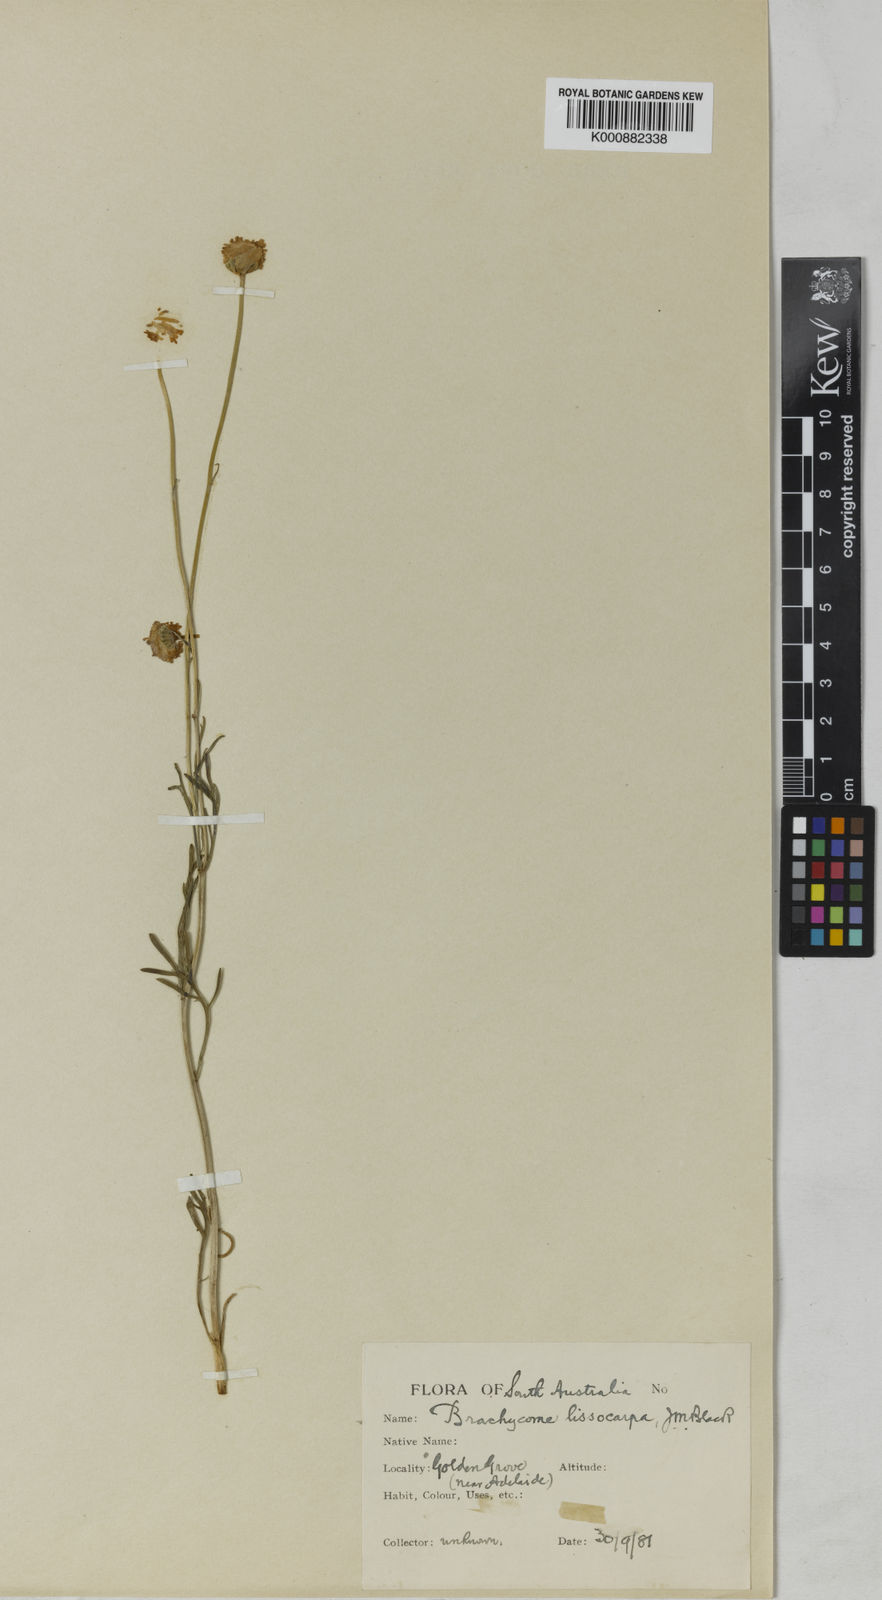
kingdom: Plantae
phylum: Tracheophyta
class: Magnoliopsida
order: Asterales
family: Asteraceae
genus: Brachyscome
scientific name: Brachyscome parvula
